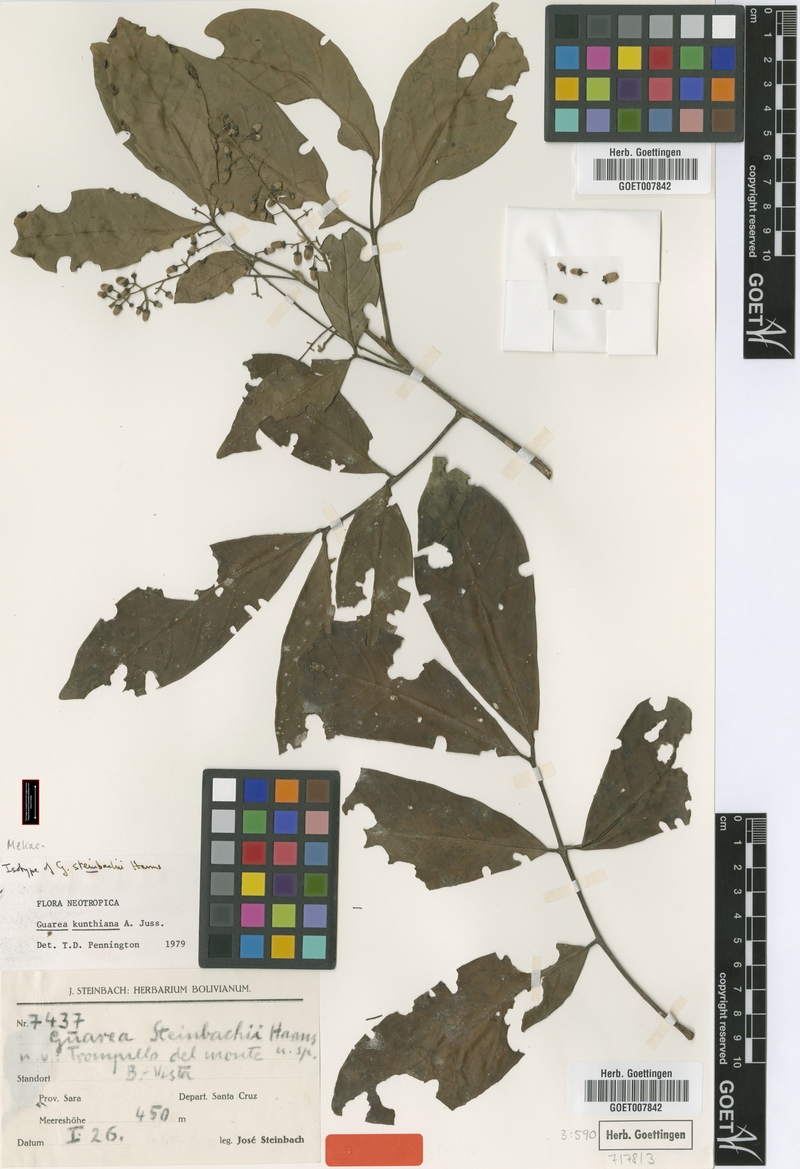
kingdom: Plantae
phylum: Tracheophyta
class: Magnoliopsida
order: Sapindales
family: Meliaceae
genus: Guarea
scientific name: Guarea kunthiana
